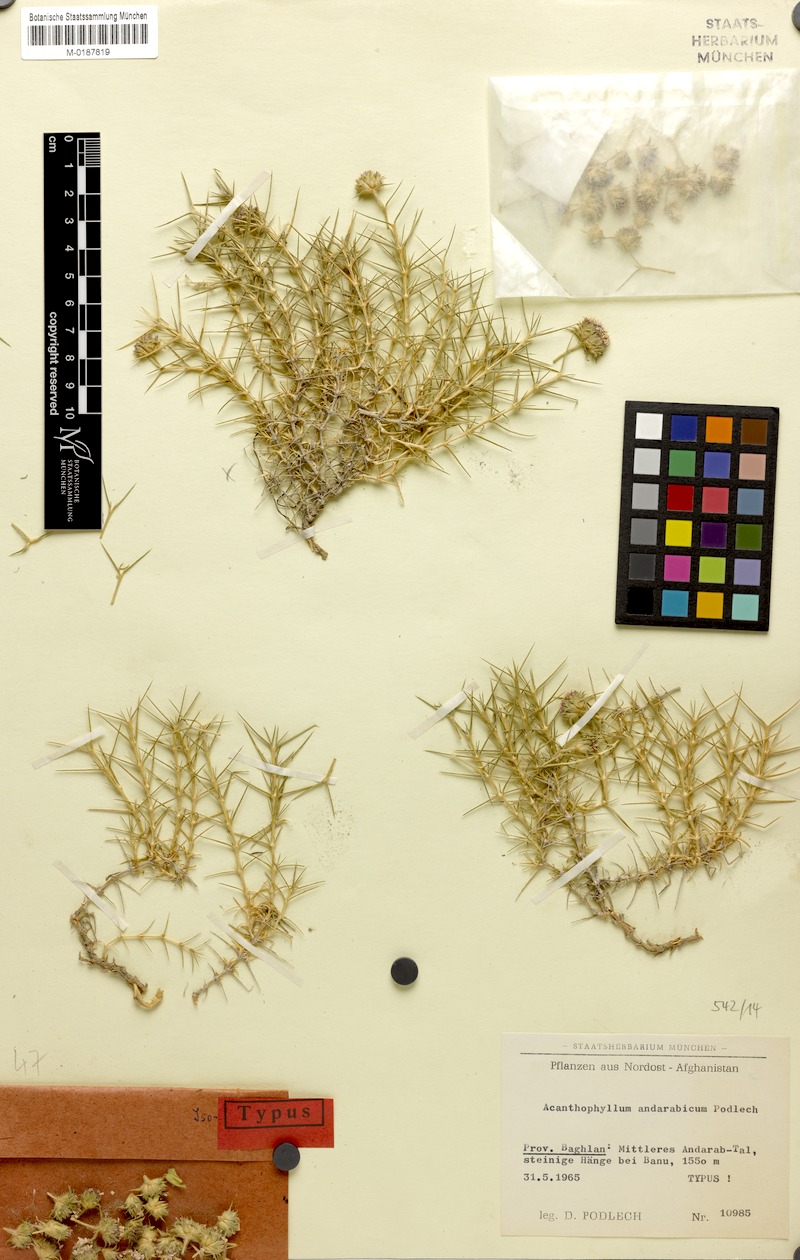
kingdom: Plantae
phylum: Tracheophyta
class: Magnoliopsida
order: Caryophyllales
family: Caryophyllaceae
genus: Acanthophyllum
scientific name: Acanthophyllum andarabicum
